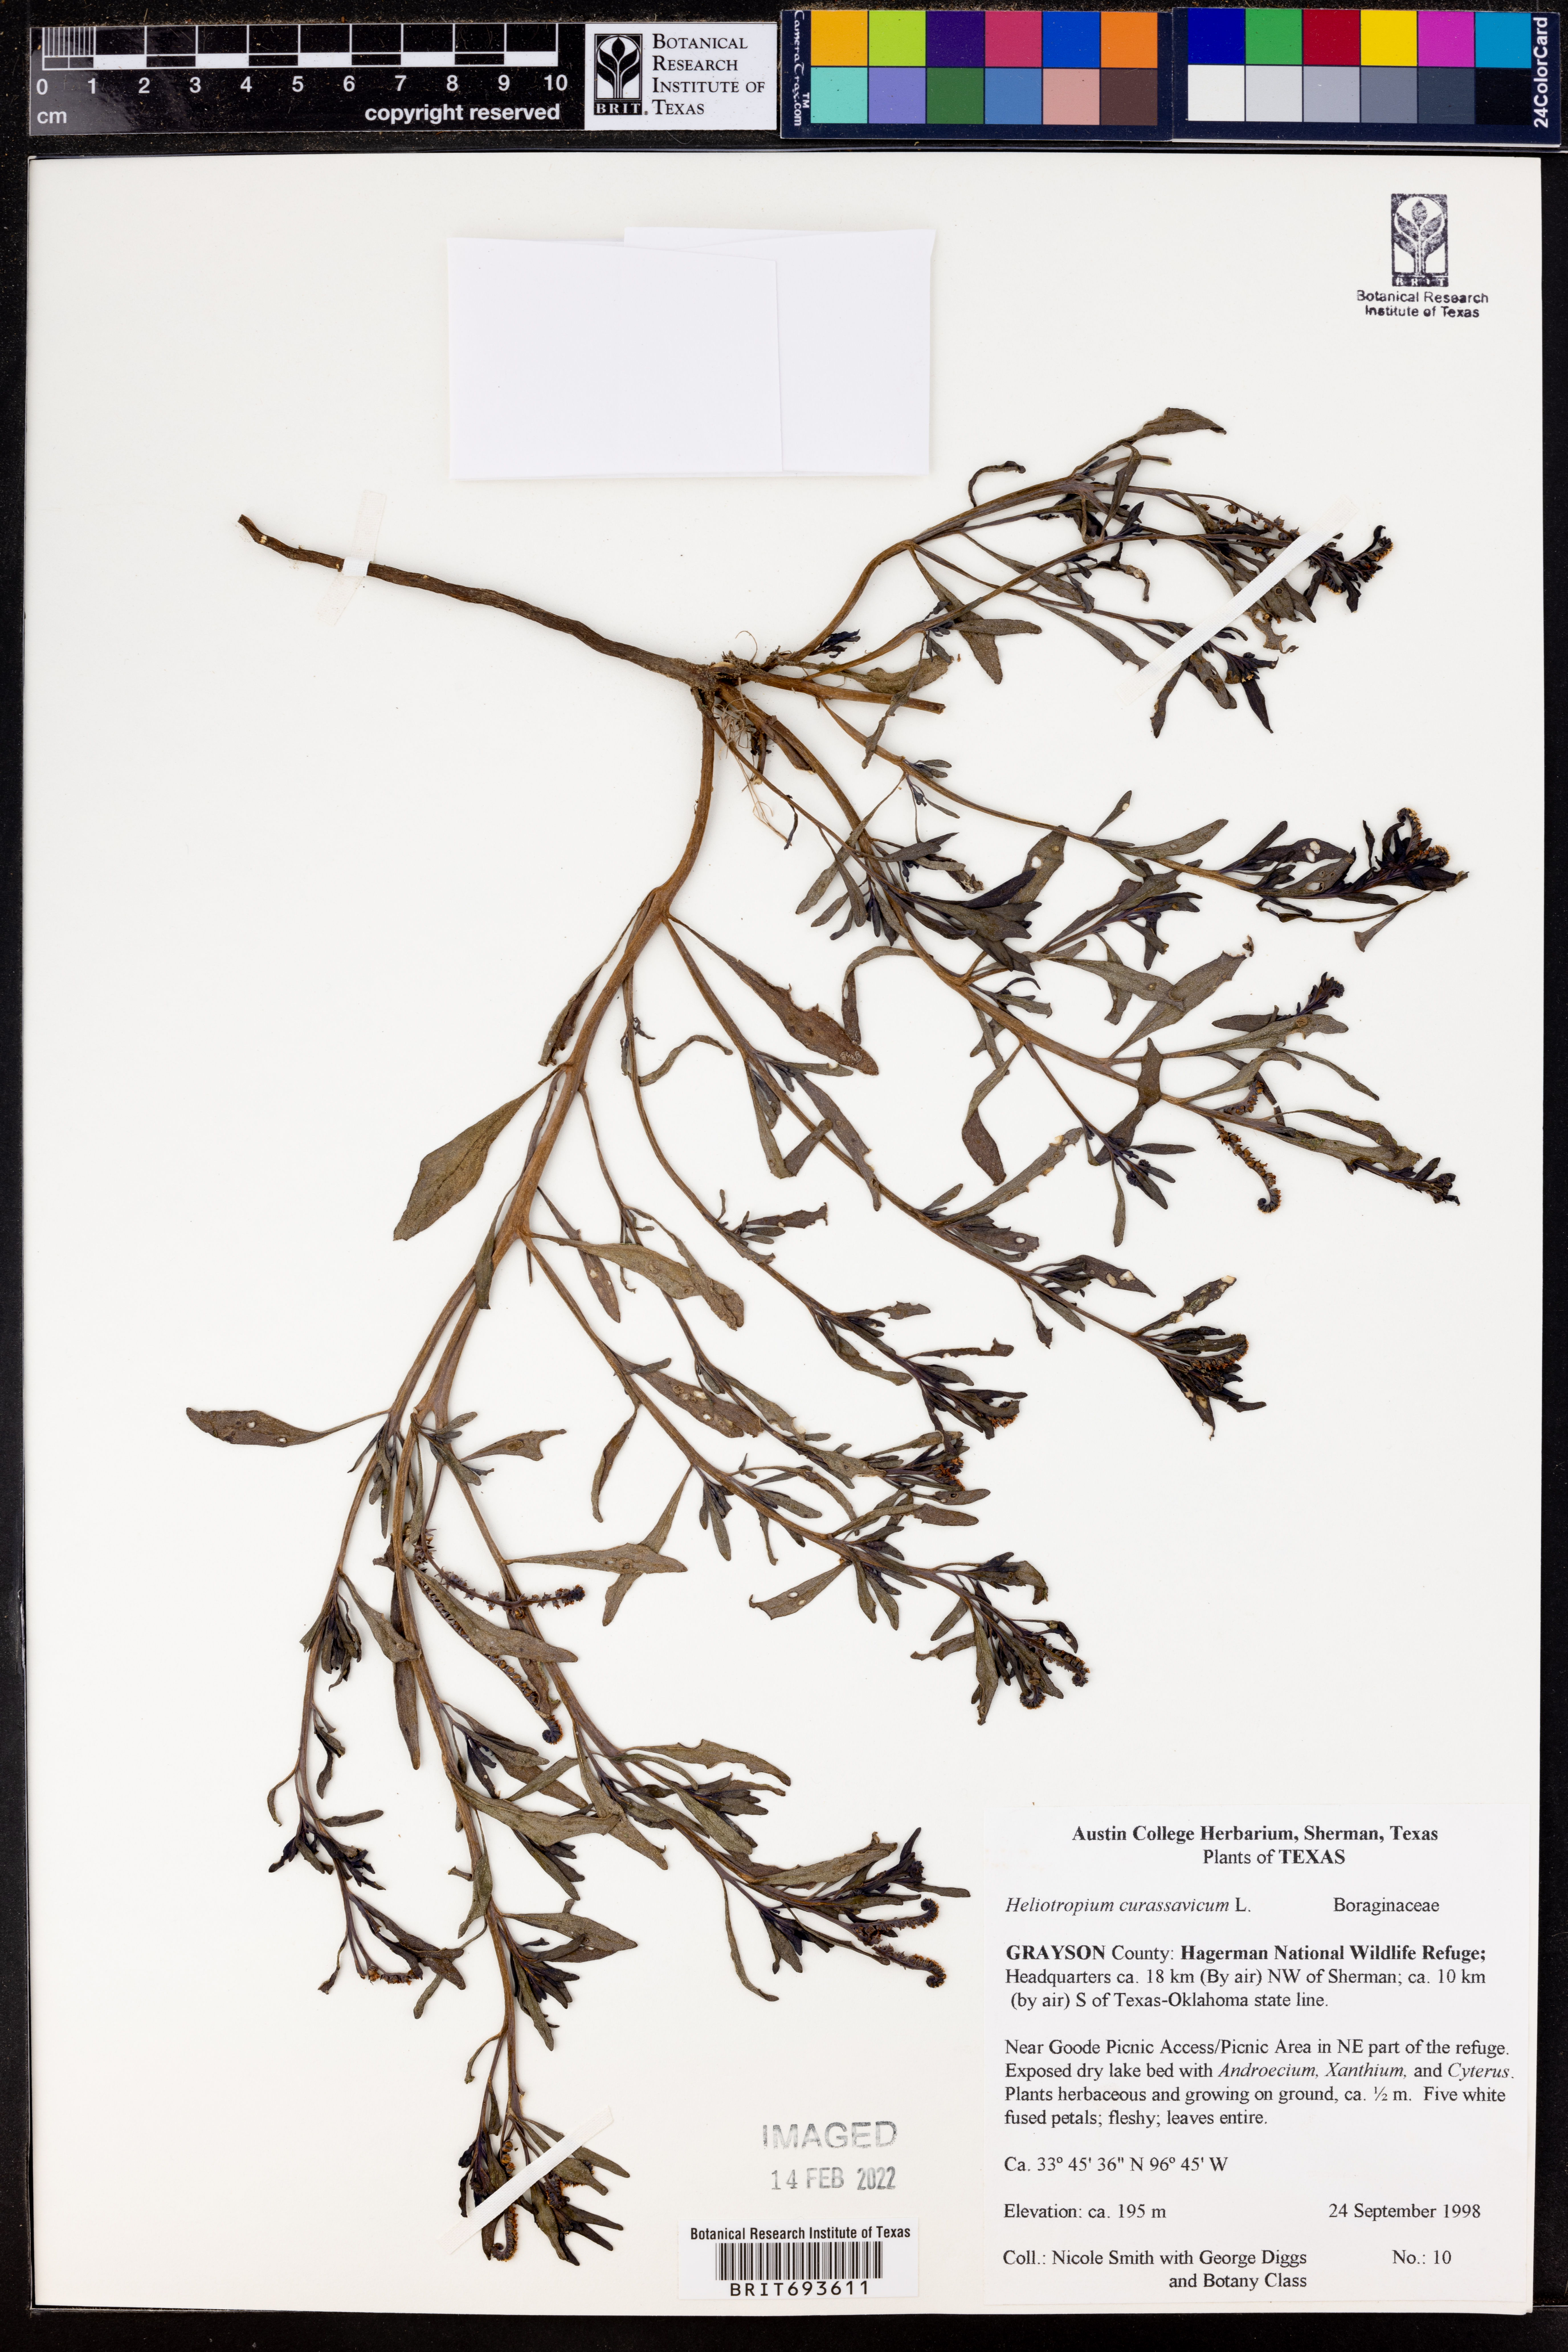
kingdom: Plantae
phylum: Tracheophyta
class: Magnoliopsida
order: Boraginales
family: Heliotropiaceae
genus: Heliotropium
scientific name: Heliotropium curassavicum
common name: Seaside heliotrope
